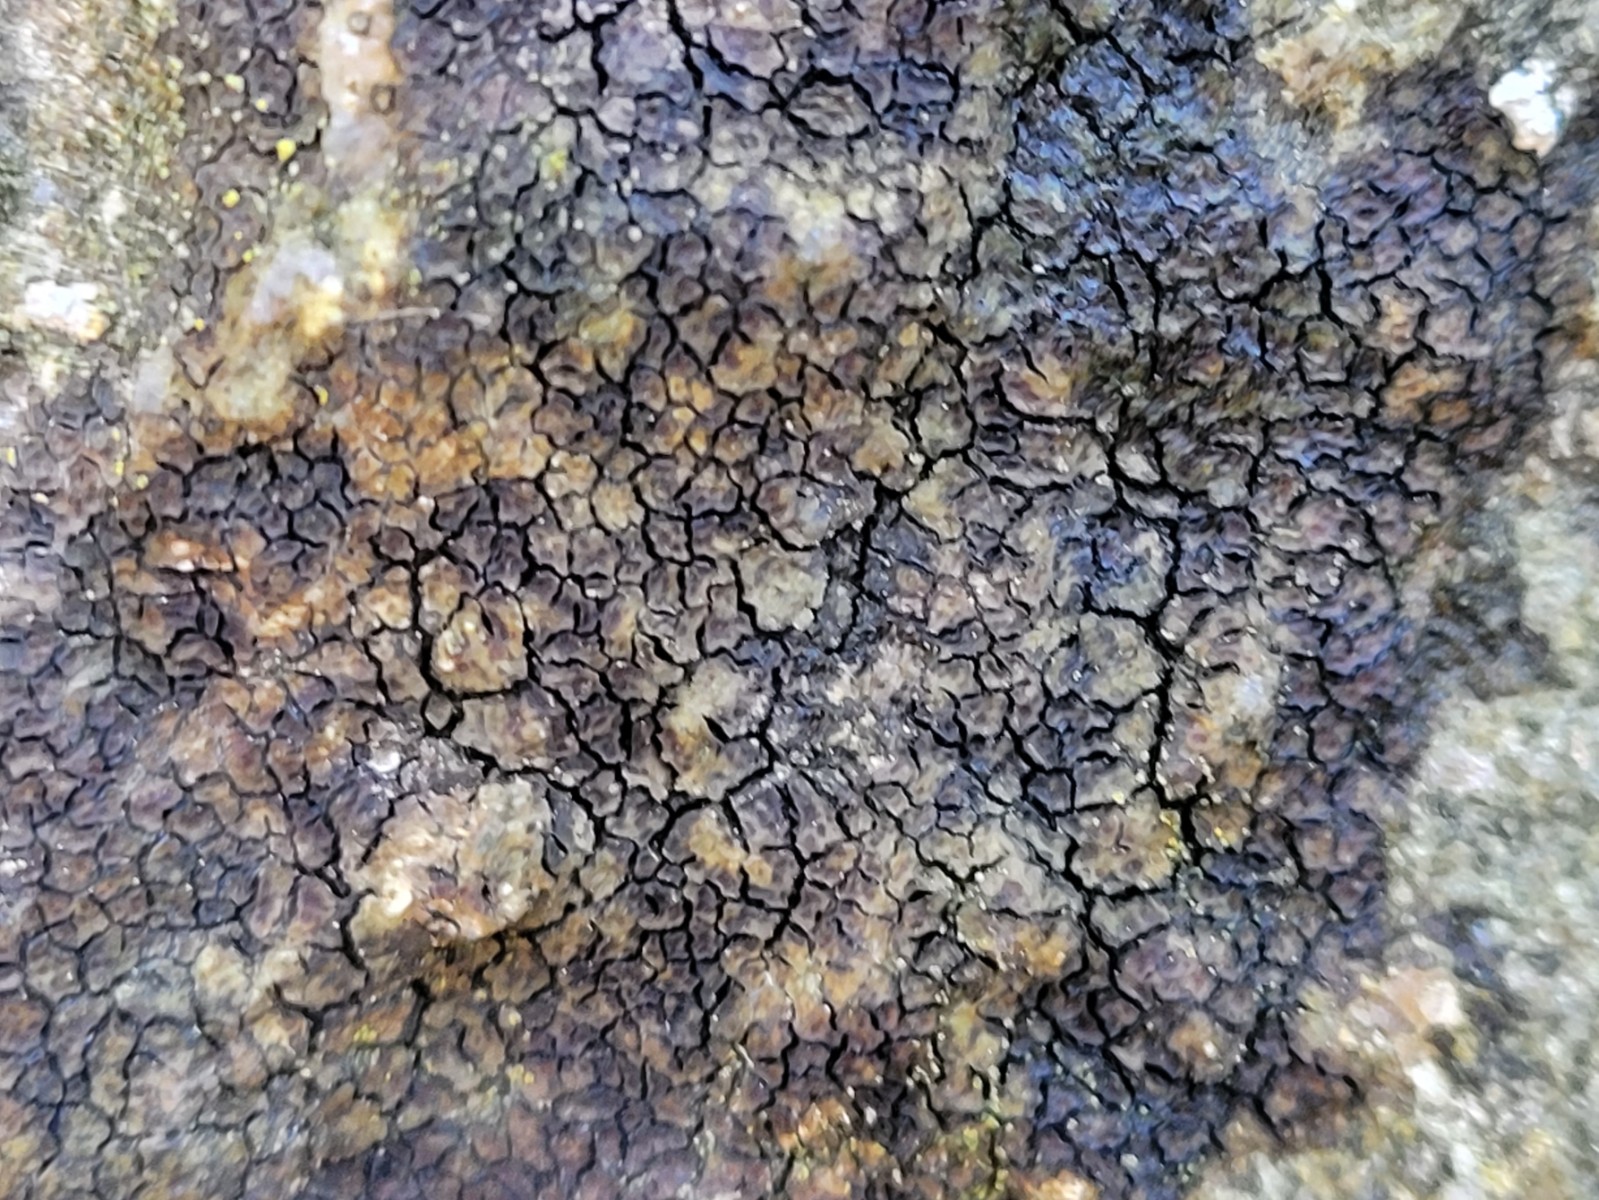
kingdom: Fungi
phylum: Ascomycota
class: Lecanoromycetes
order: Acarosporales
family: Acarosporaceae
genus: Acarospora
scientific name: Acarospora fuscata
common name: brun småsporelav
